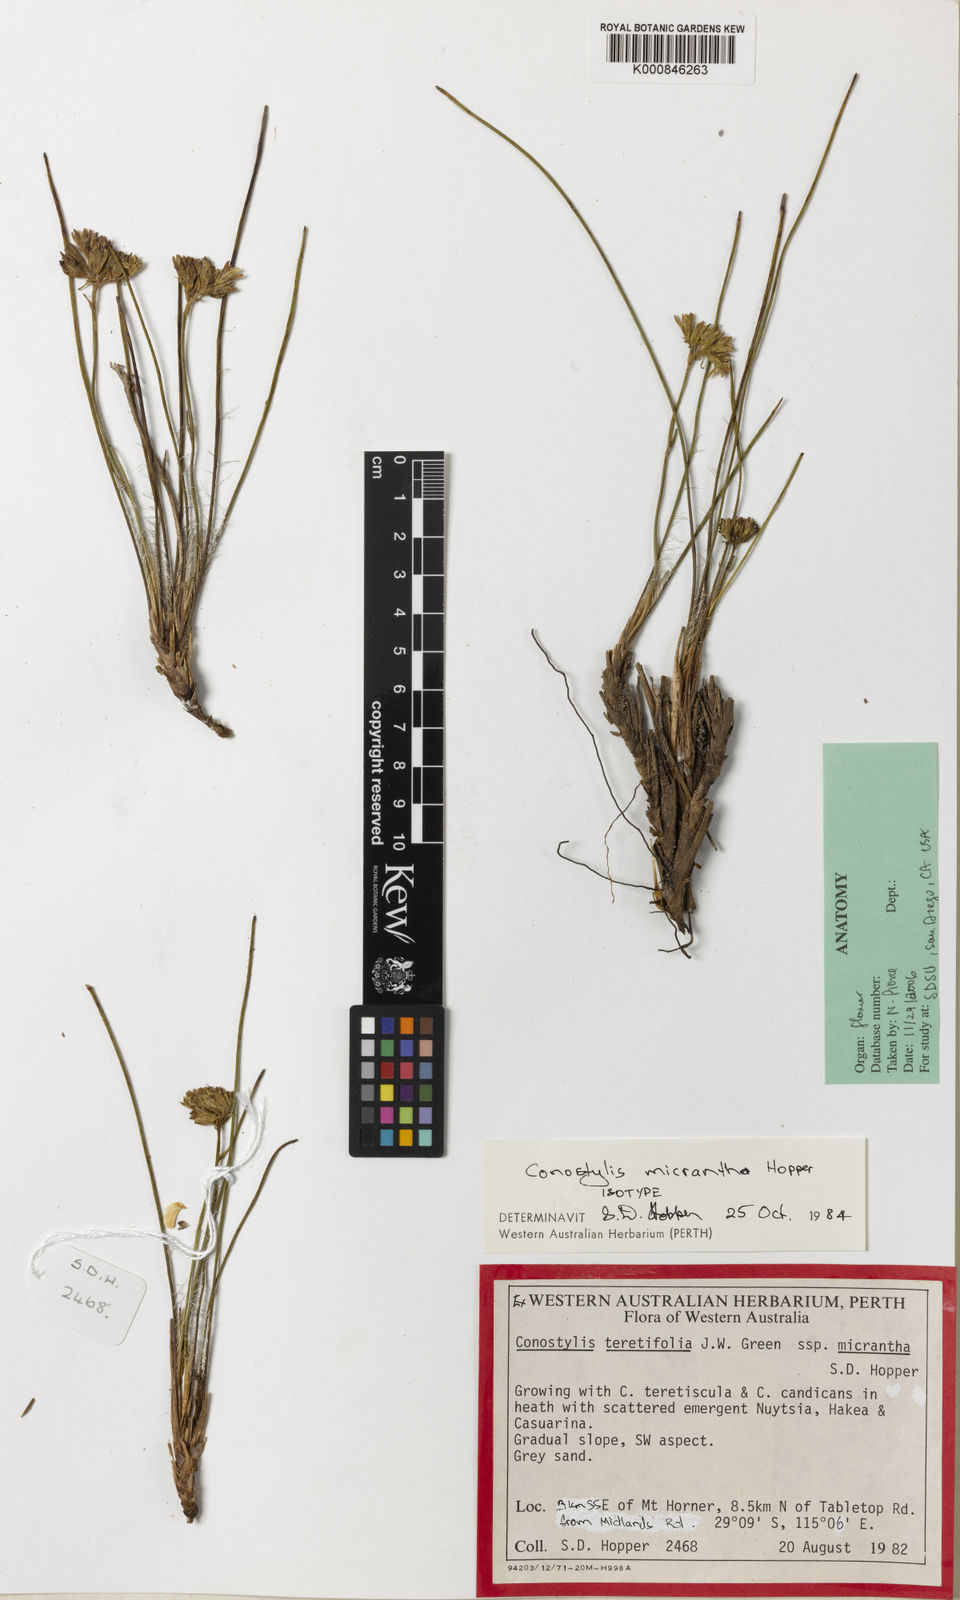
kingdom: Plantae
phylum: Tracheophyta
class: Liliopsida
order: Commelinales
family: Haemodoraceae
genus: Conostylis
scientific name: Conostylis micrantha
